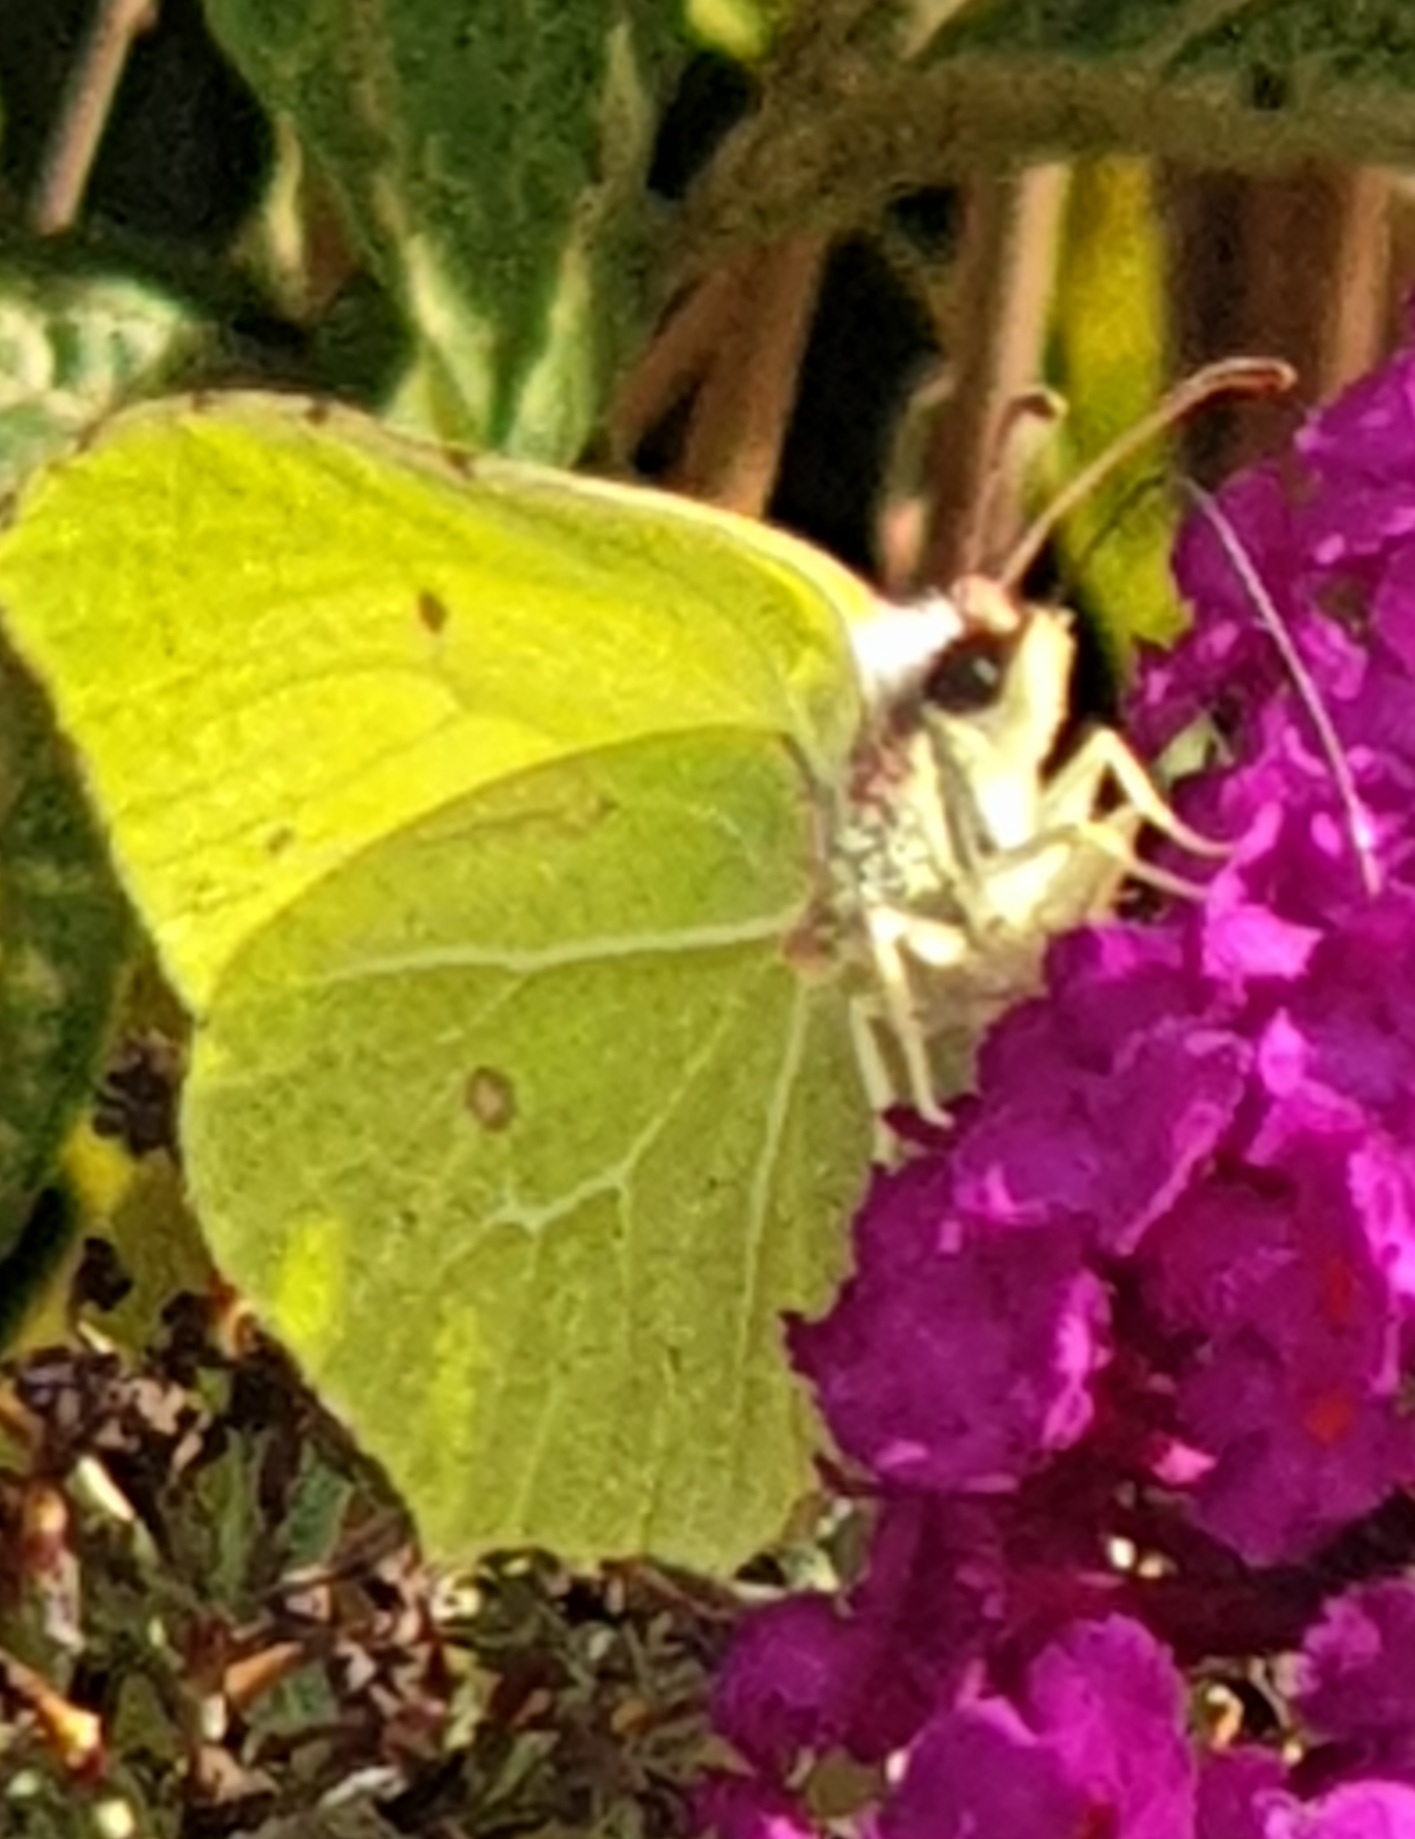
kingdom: Animalia
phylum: Arthropoda
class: Insecta
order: Lepidoptera
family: Pieridae
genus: Gonepteryx
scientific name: Gonepteryx rhamni
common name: Citronsommerfugl
